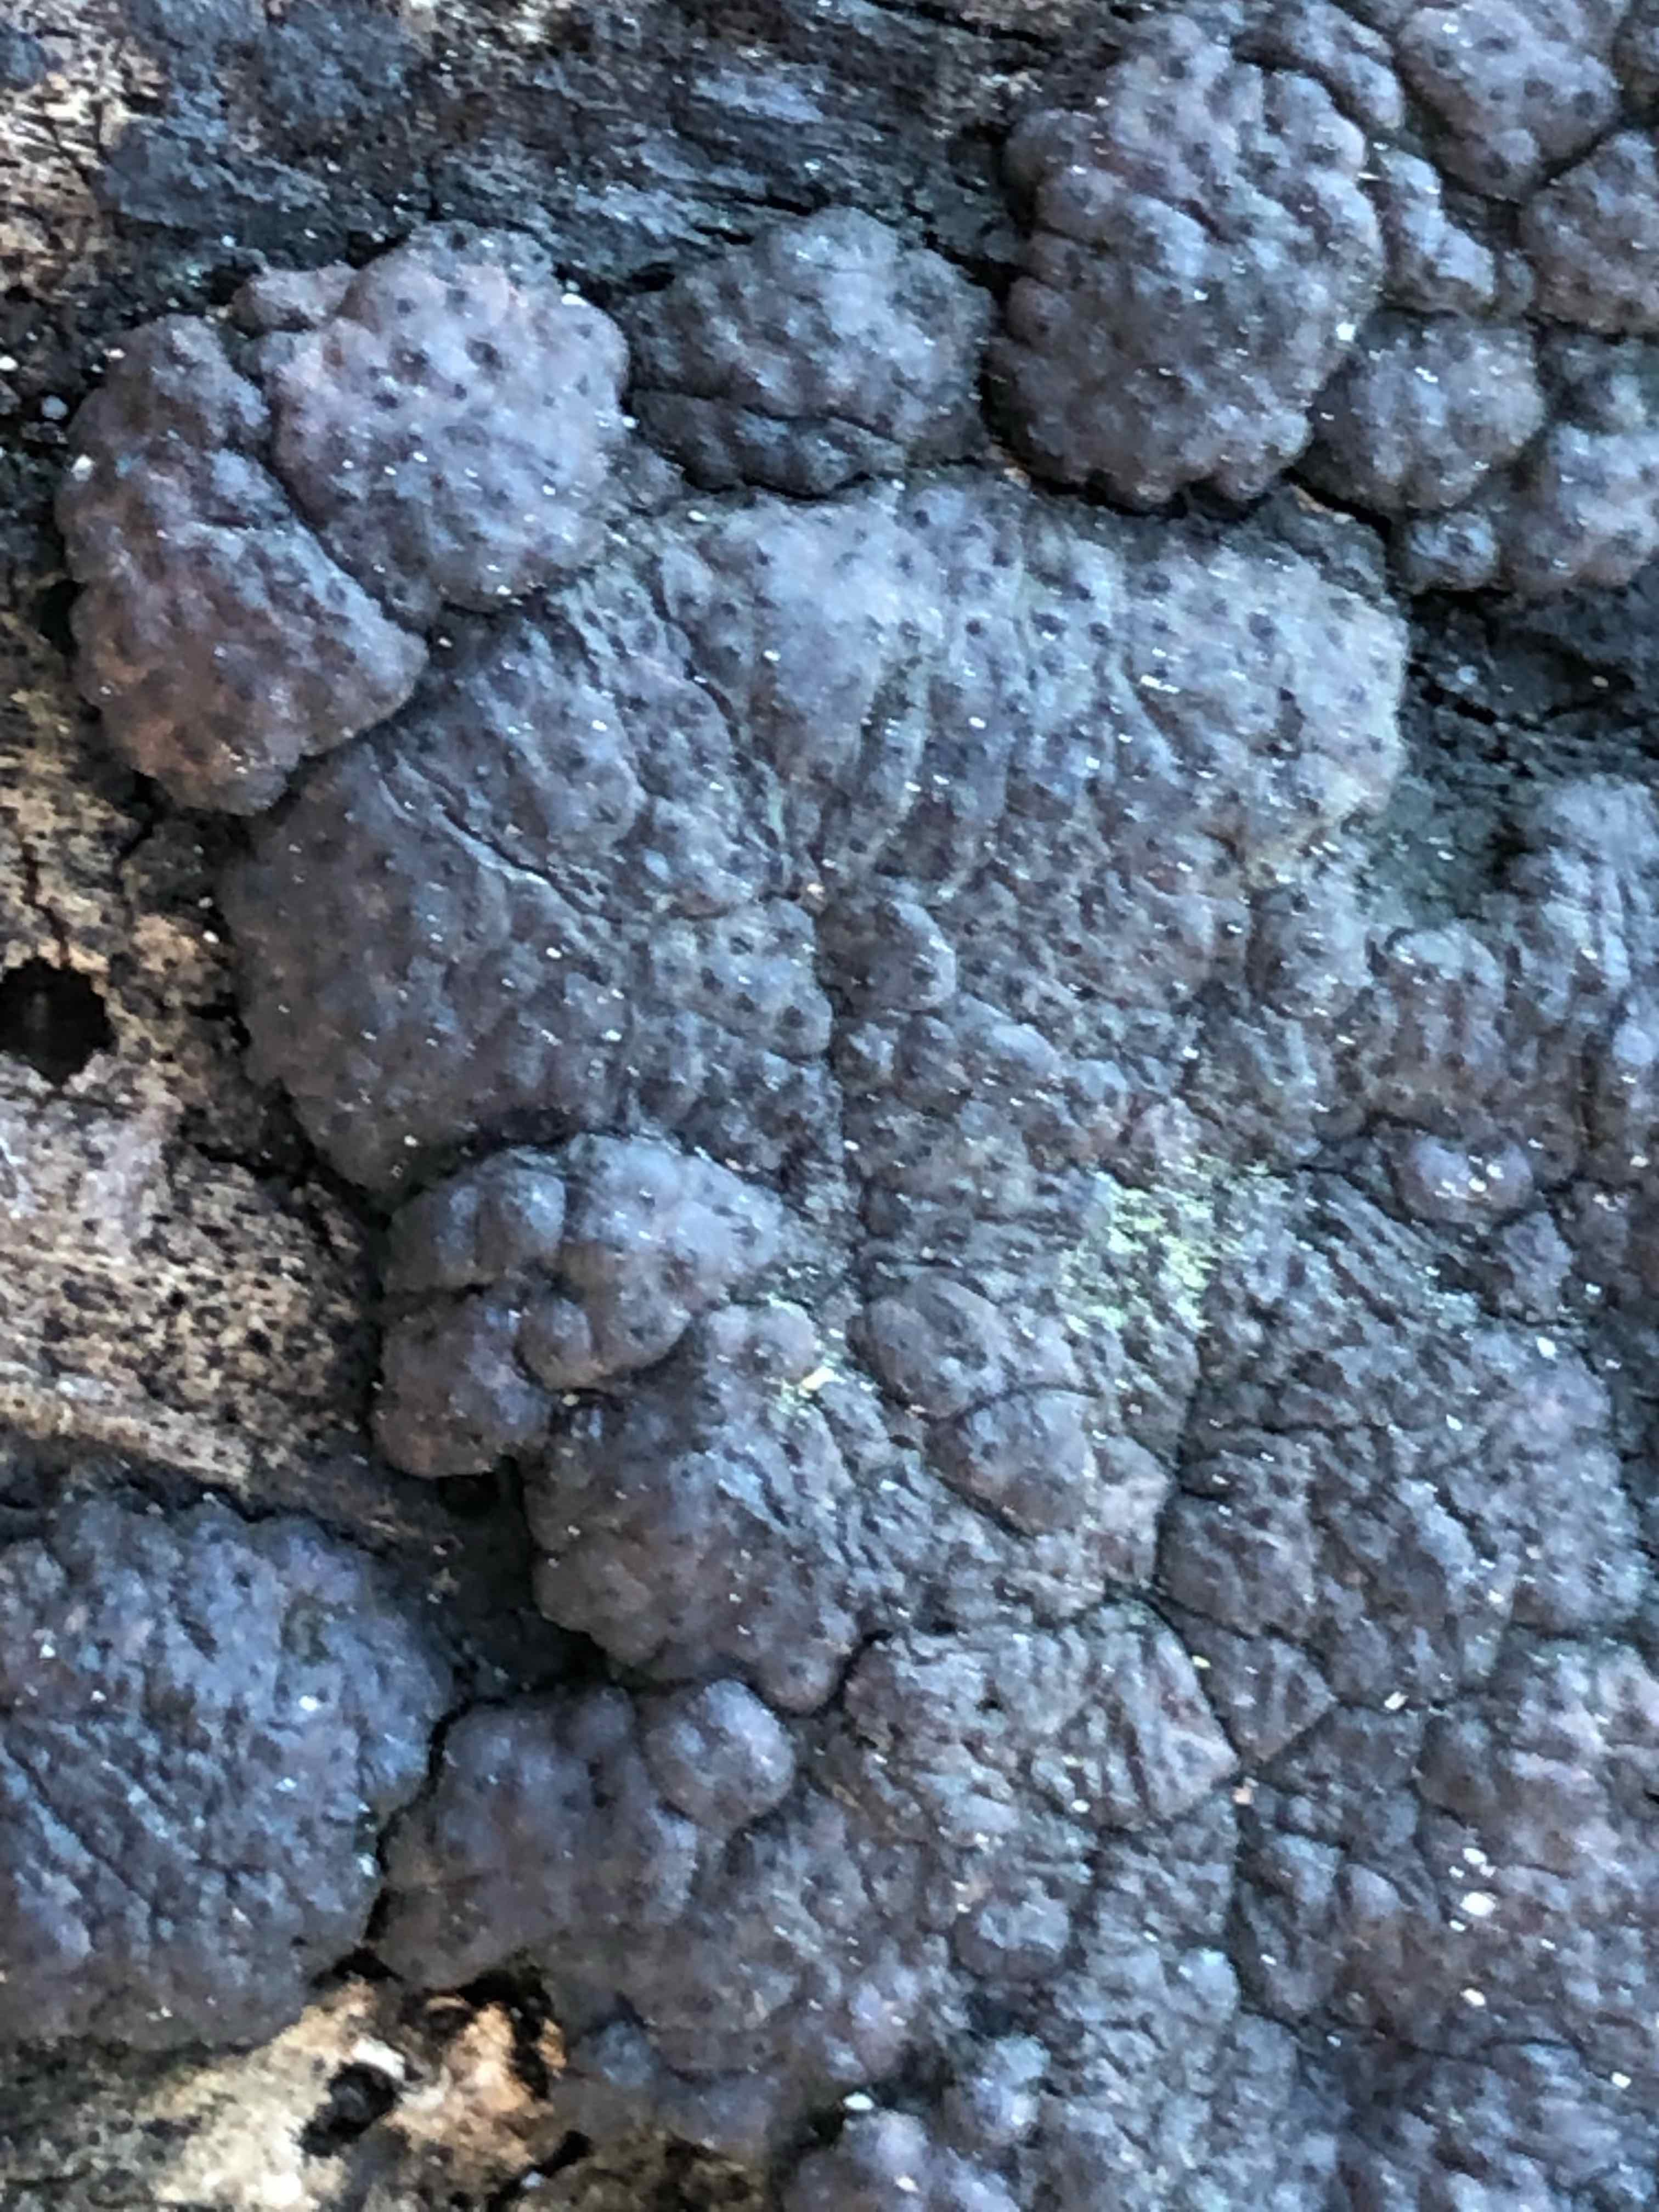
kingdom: Fungi
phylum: Ascomycota
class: Sordariomycetes
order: Xylariales
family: Hypoxylaceae
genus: Jackrogersella
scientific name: Jackrogersella multiformis
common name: foranderlig kulbær
